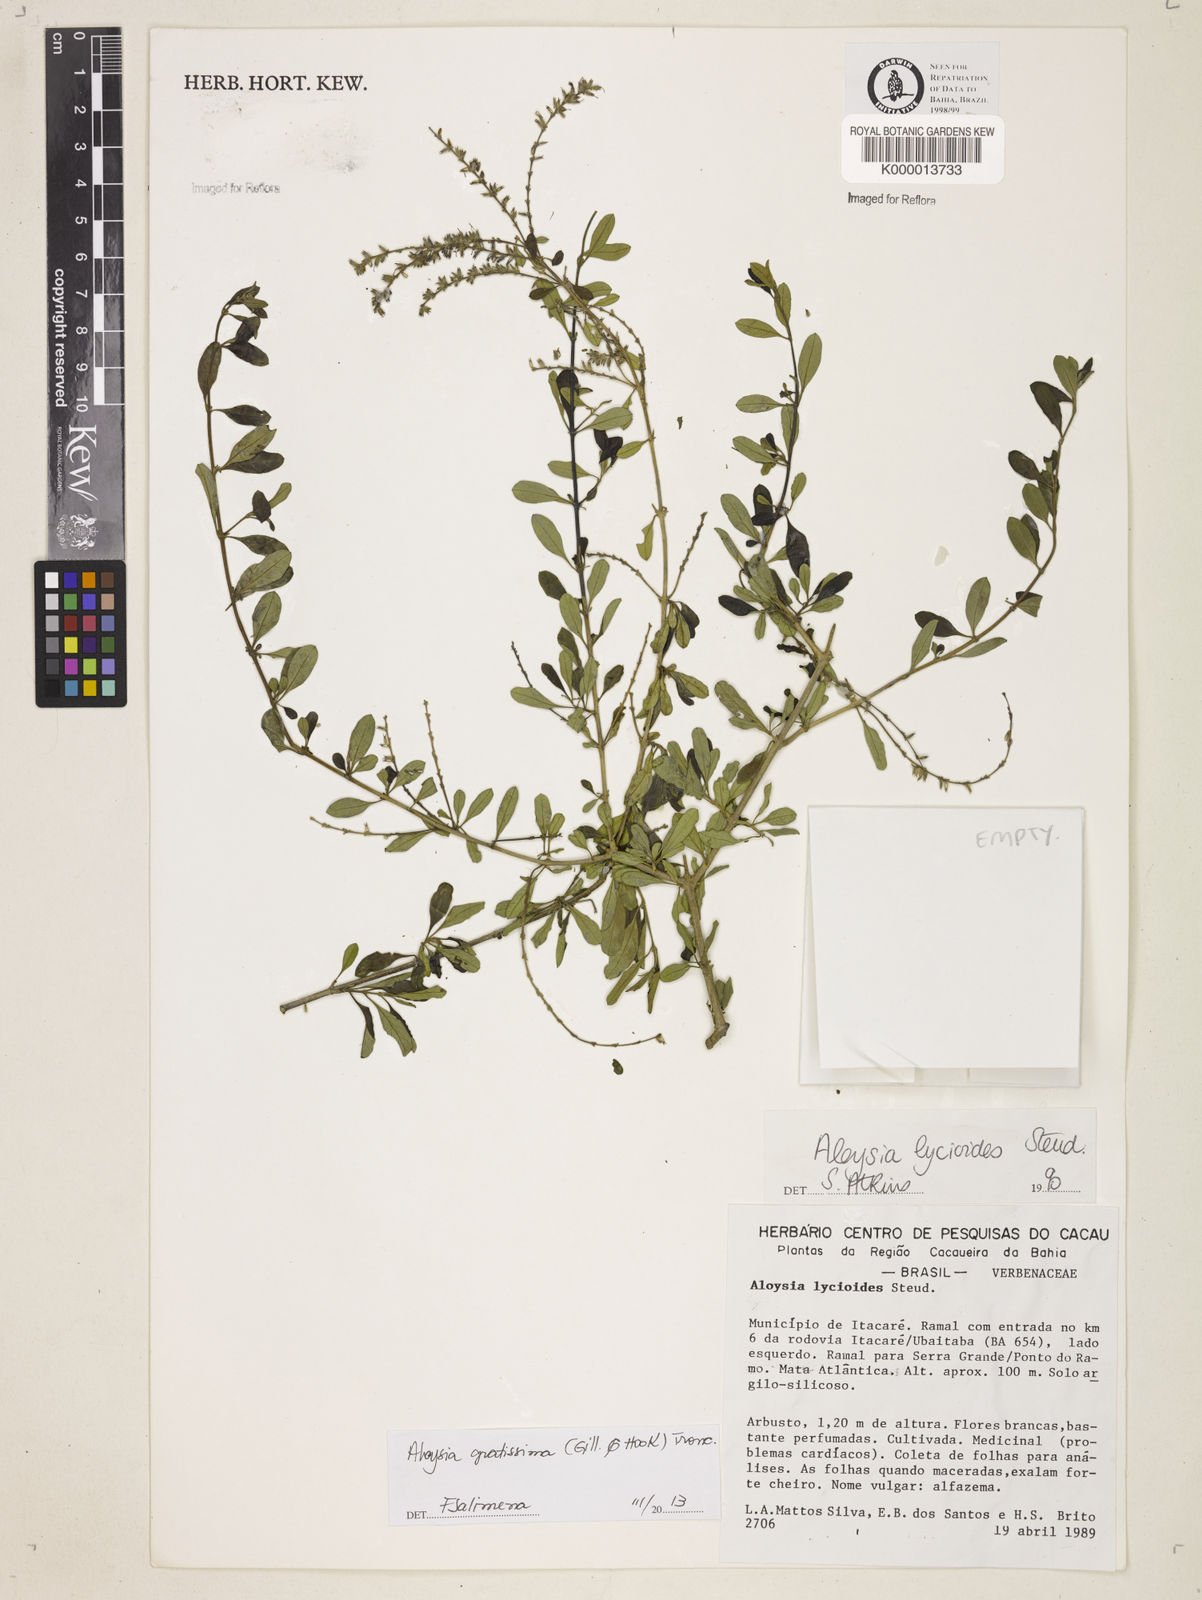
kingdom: Plantae
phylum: Tracheophyta
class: Magnoliopsida
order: Lamiales
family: Verbenaceae
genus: Aloysia
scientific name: Aloysia gratissima
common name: Common bee-brush
